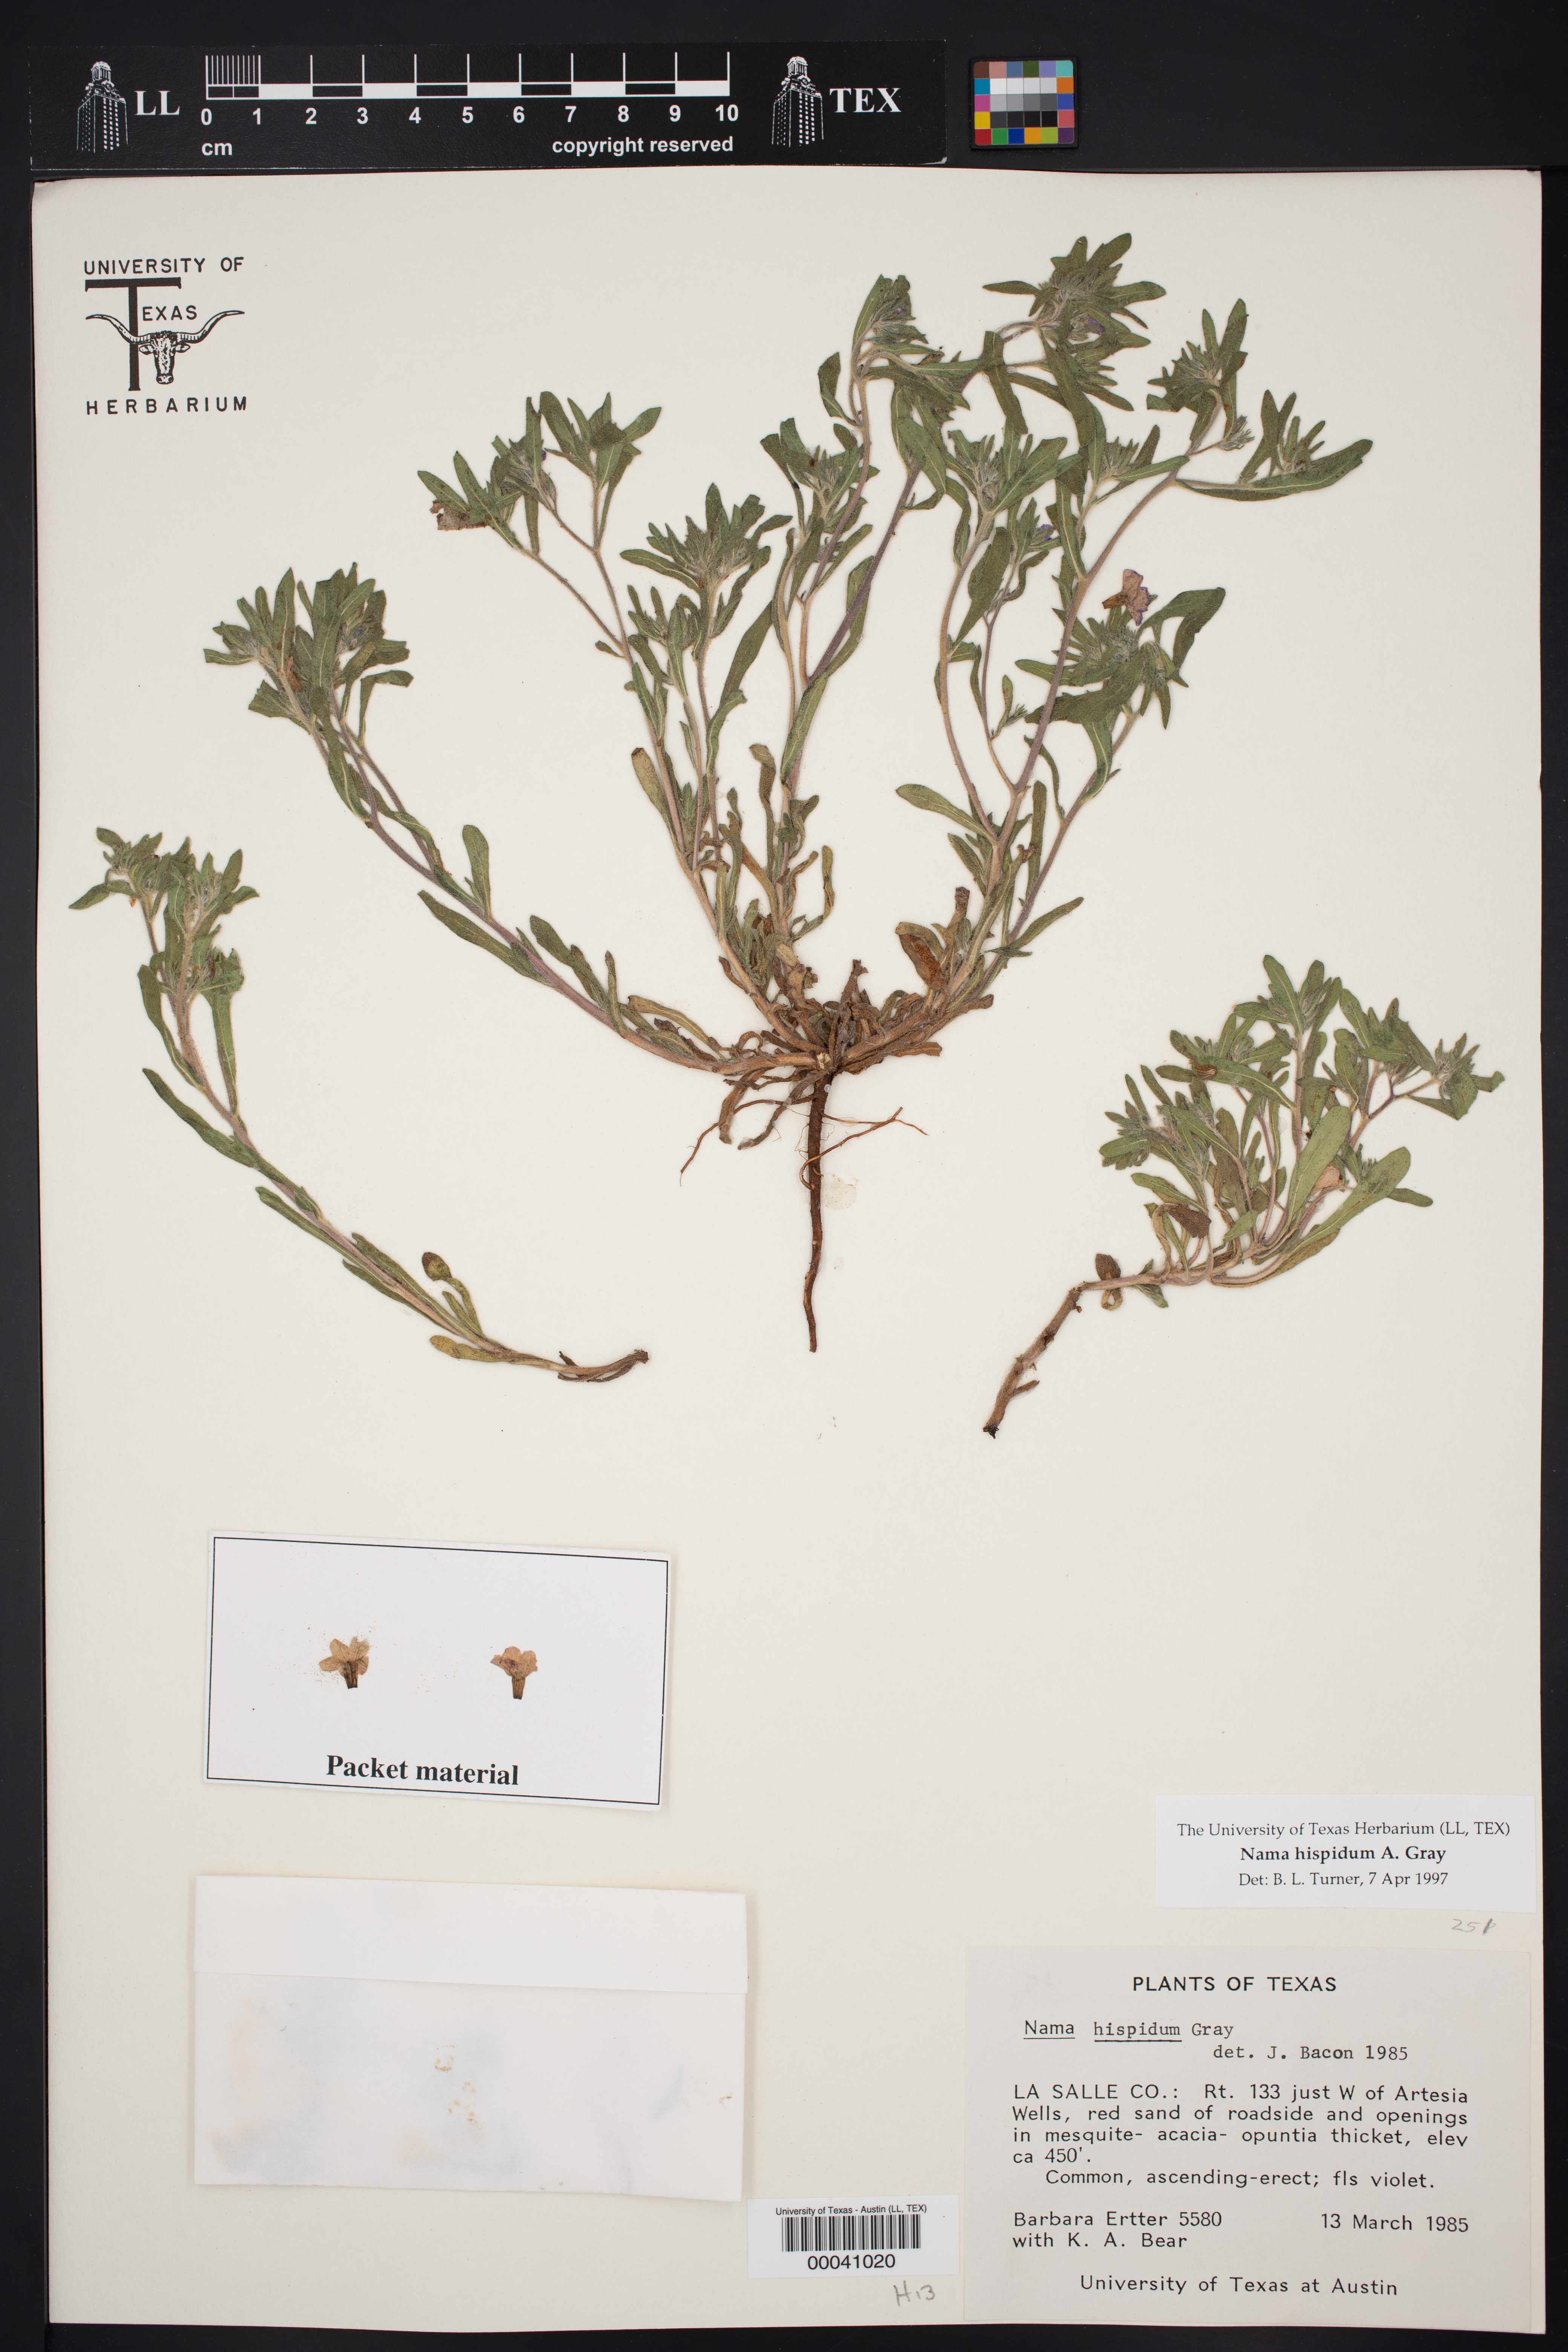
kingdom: Plantae
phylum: Tracheophyta
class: Magnoliopsida
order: Boraginales
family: Namaceae
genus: Nama
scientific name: Nama hispida
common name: Bristly nama
